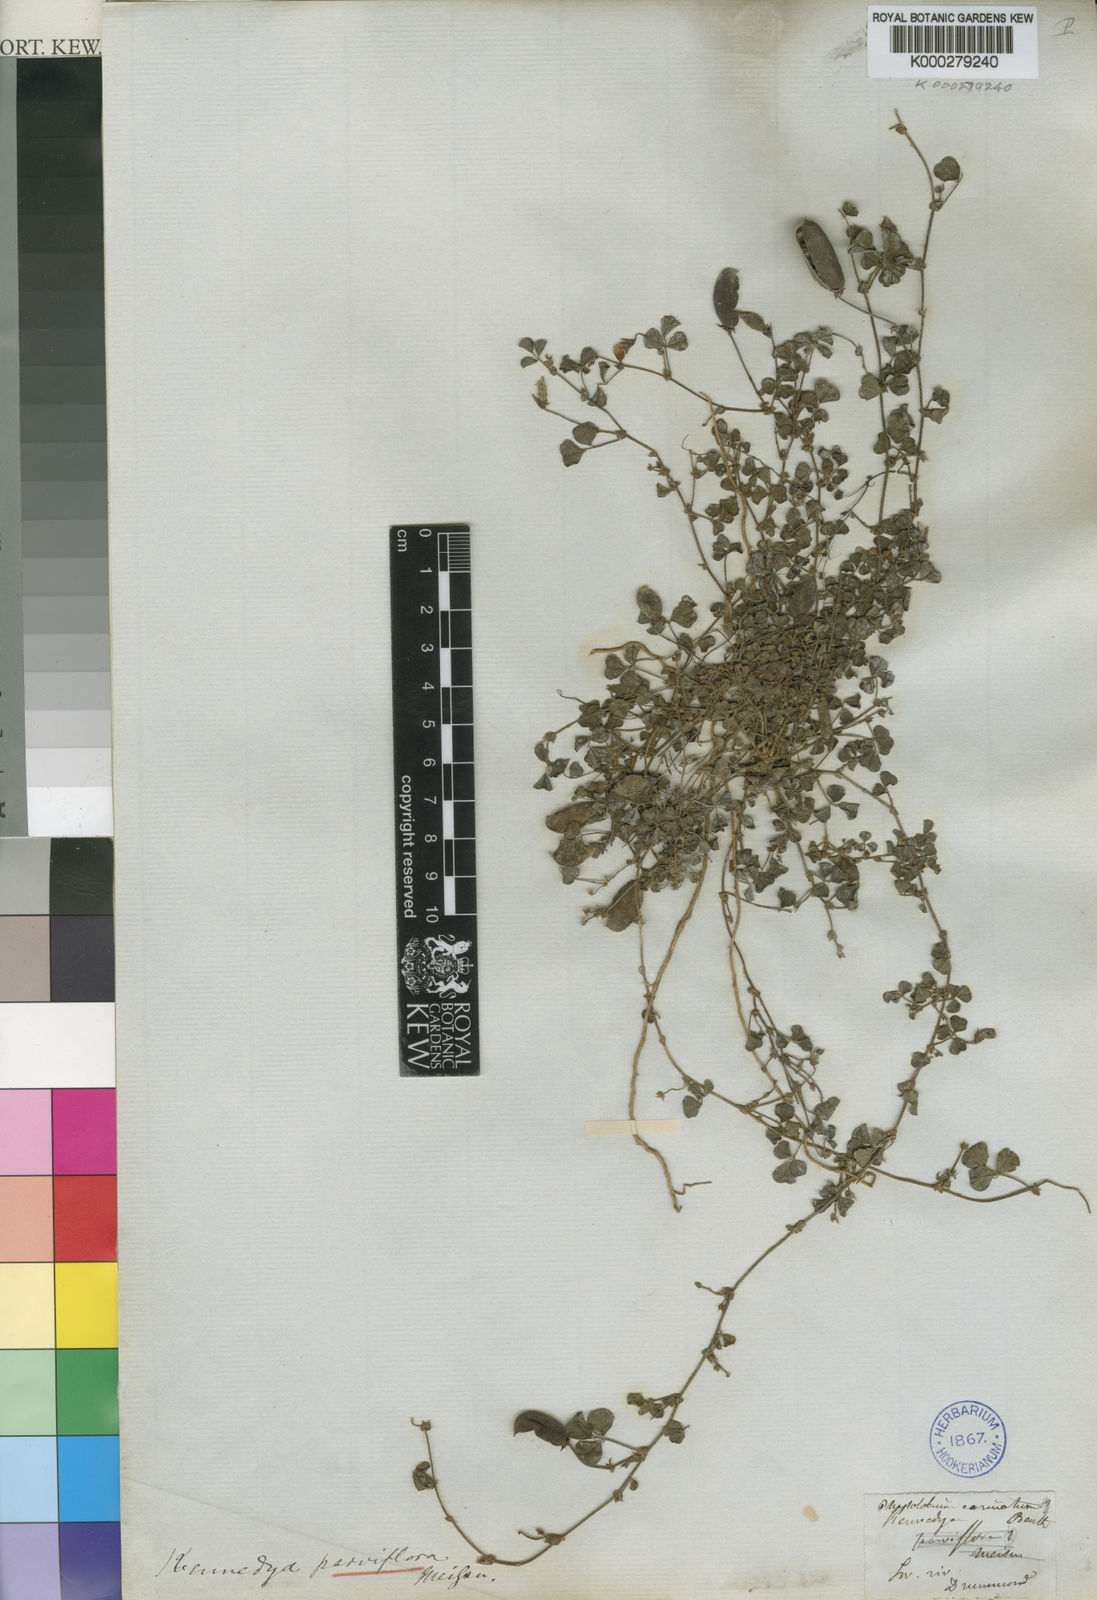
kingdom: Plantae
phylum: Tracheophyta
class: Magnoliopsida
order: Fabales
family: Fabaceae
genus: Kennedia
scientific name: Kennedia parviflora
